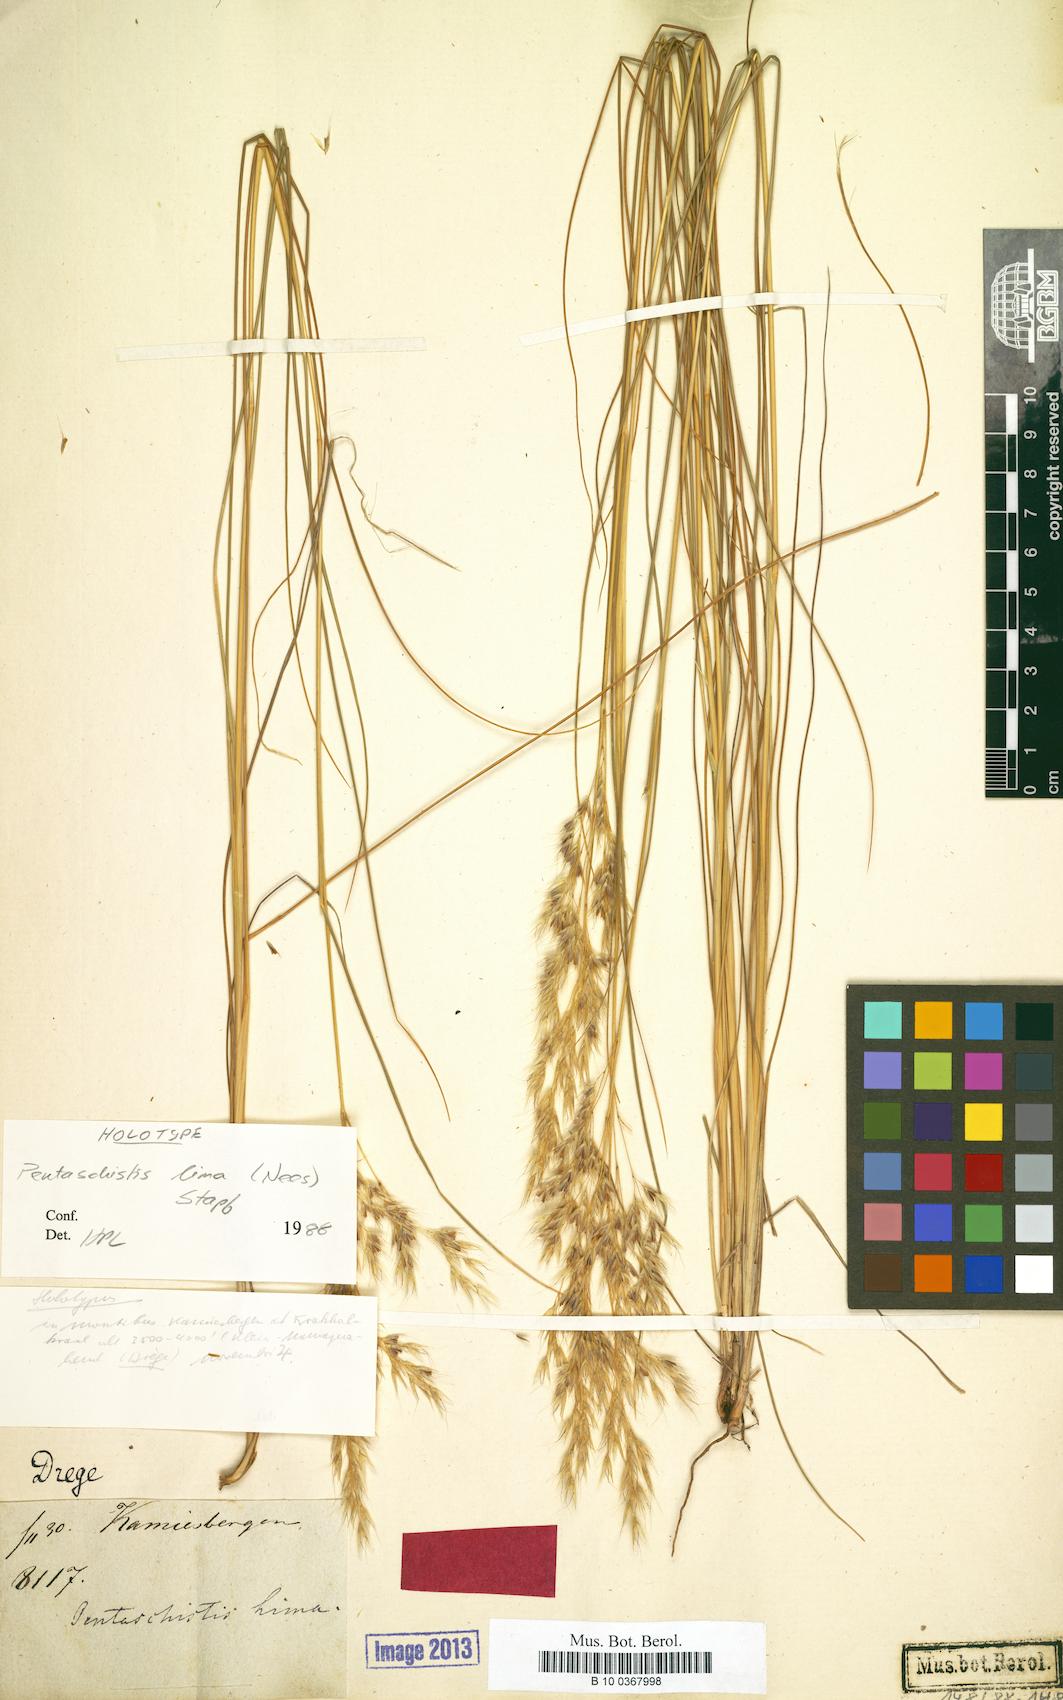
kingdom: Plantae
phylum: Tracheophyta
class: Liliopsida
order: Poales
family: Poaceae
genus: Pentameris
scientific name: Pentameris lima
